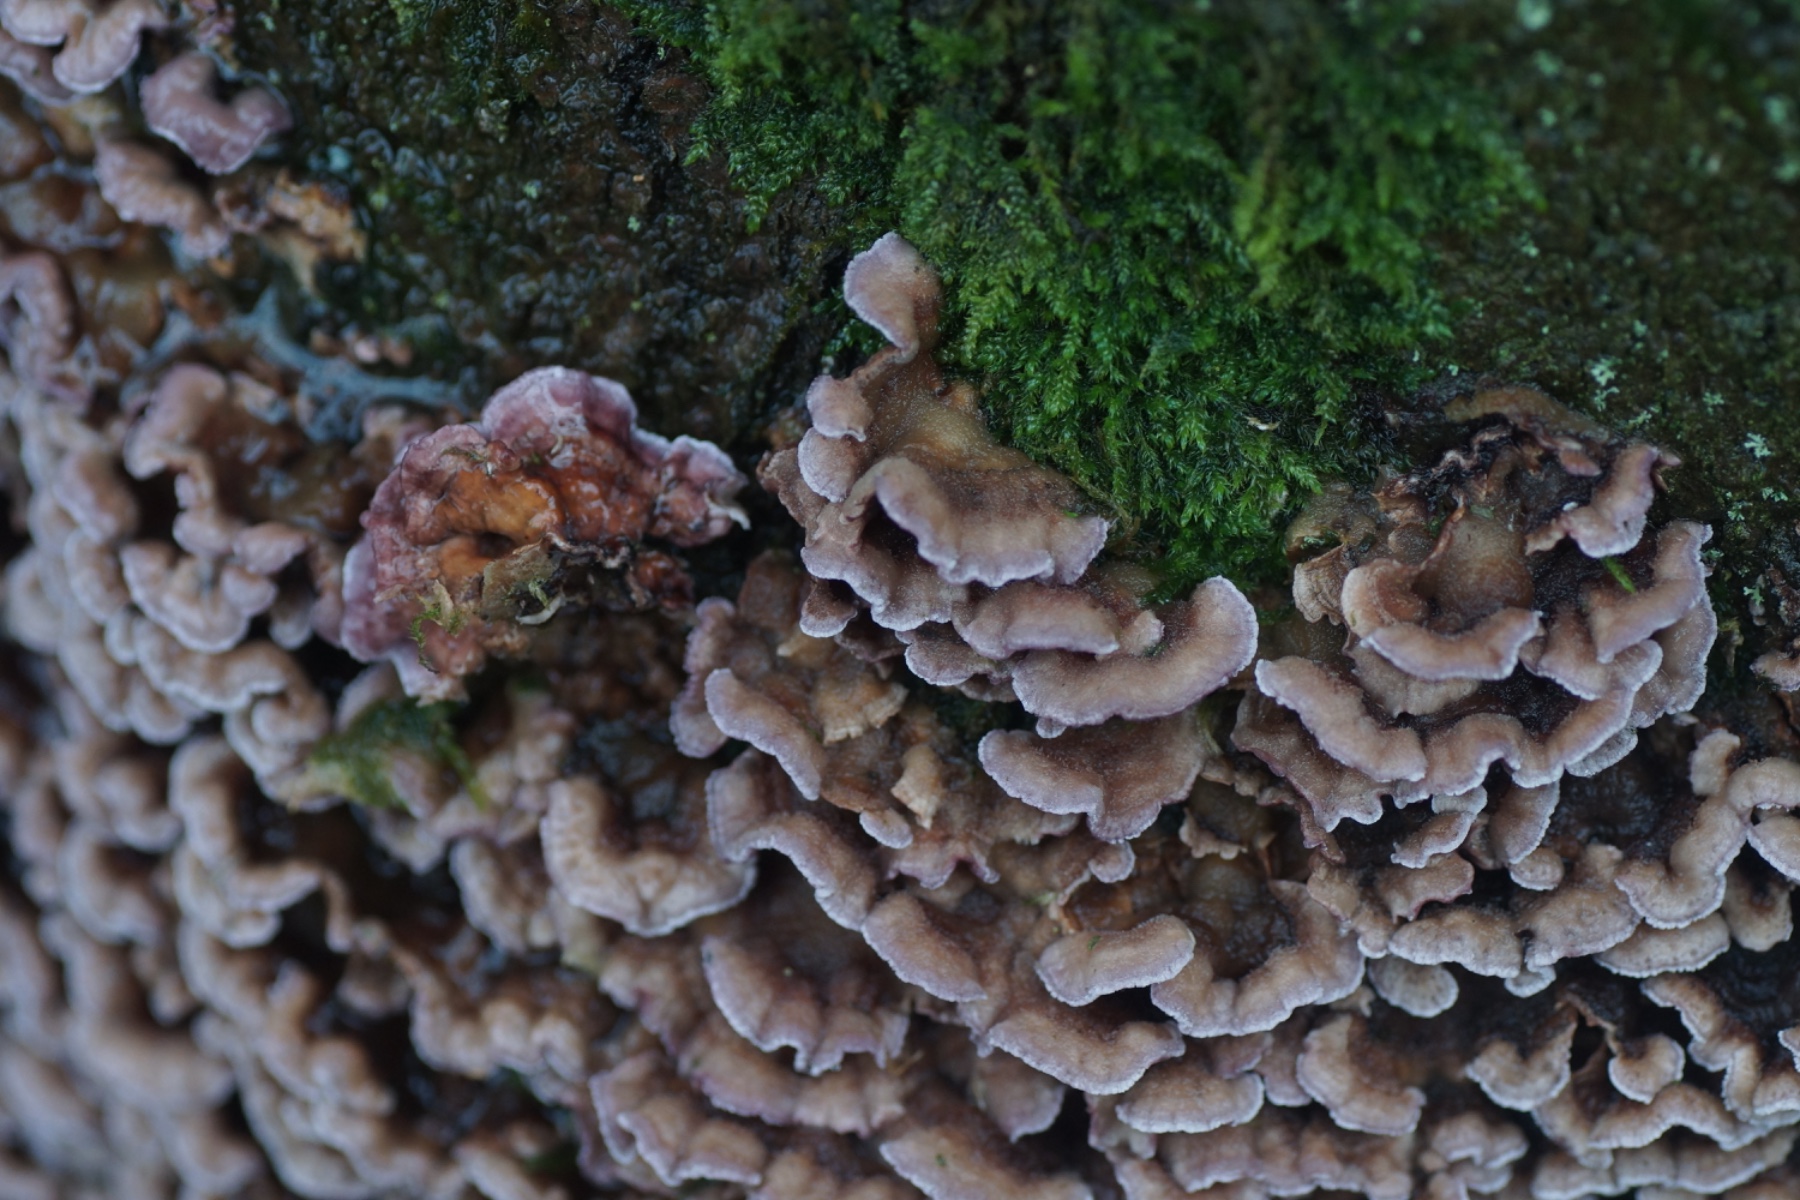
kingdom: Fungi
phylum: Basidiomycota
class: Agaricomycetes
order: Agaricales
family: Cyphellaceae
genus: Chondrostereum
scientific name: Chondrostereum purpureum
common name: purpurlædersvamp
